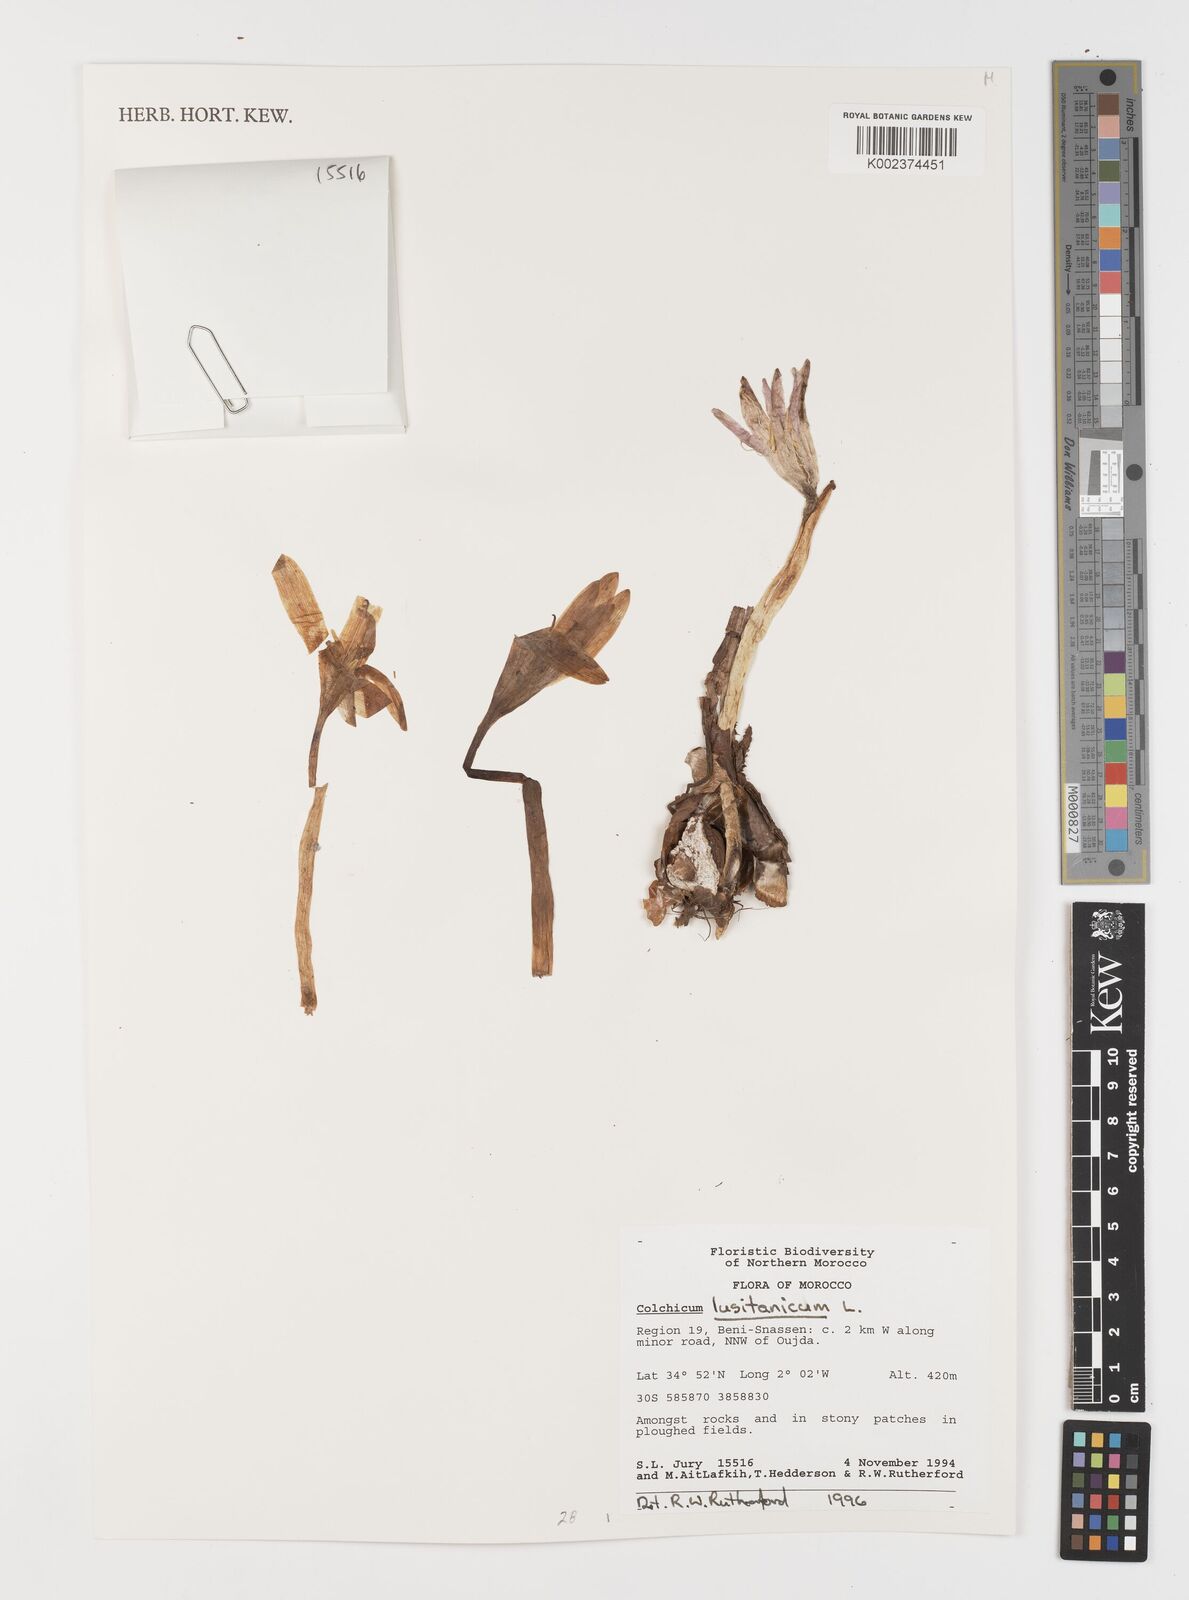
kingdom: Plantae
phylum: Tracheophyta
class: Liliopsida
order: Liliales
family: Colchicaceae
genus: Colchicum
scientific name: Colchicum lusitanum
